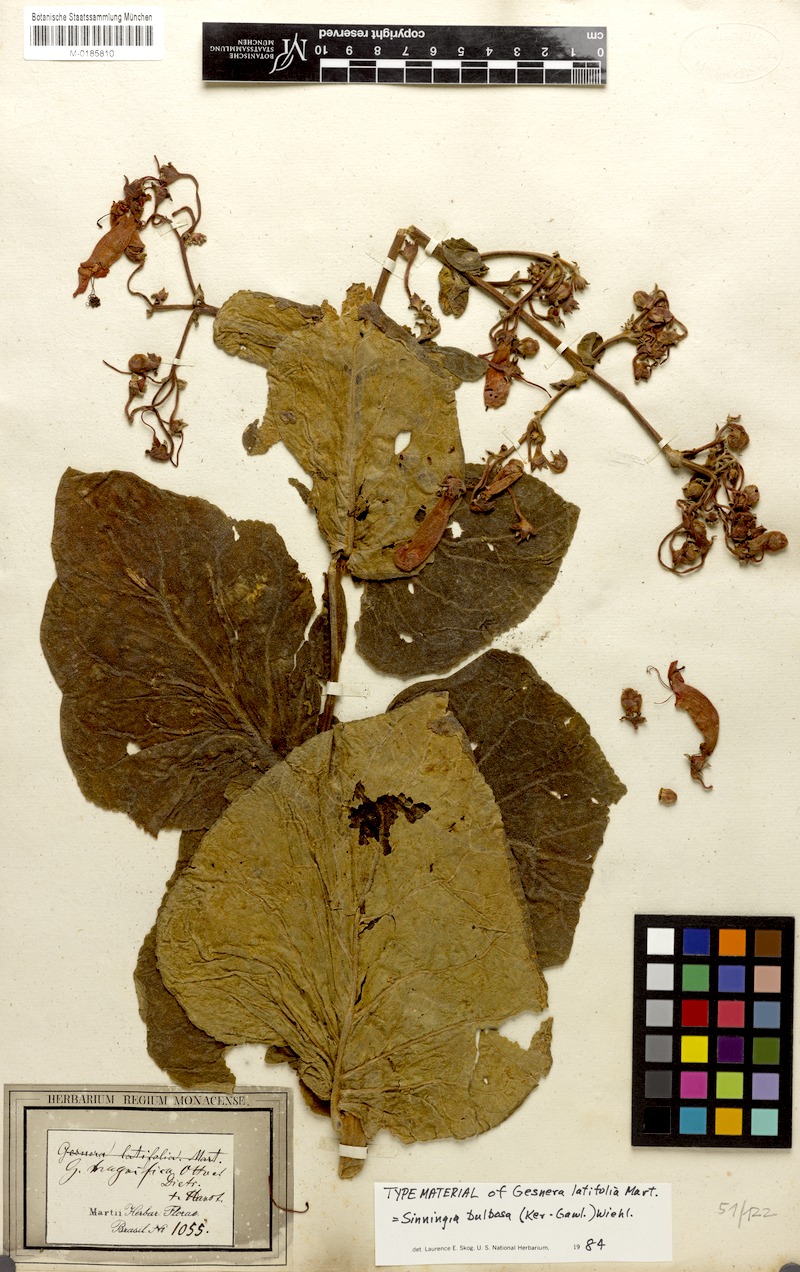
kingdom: Plantae
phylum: Tracheophyta
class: Magnoliopsida
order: Lamiales
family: Gesneriaceae
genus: Sinningia
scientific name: Sinningia magnifica
